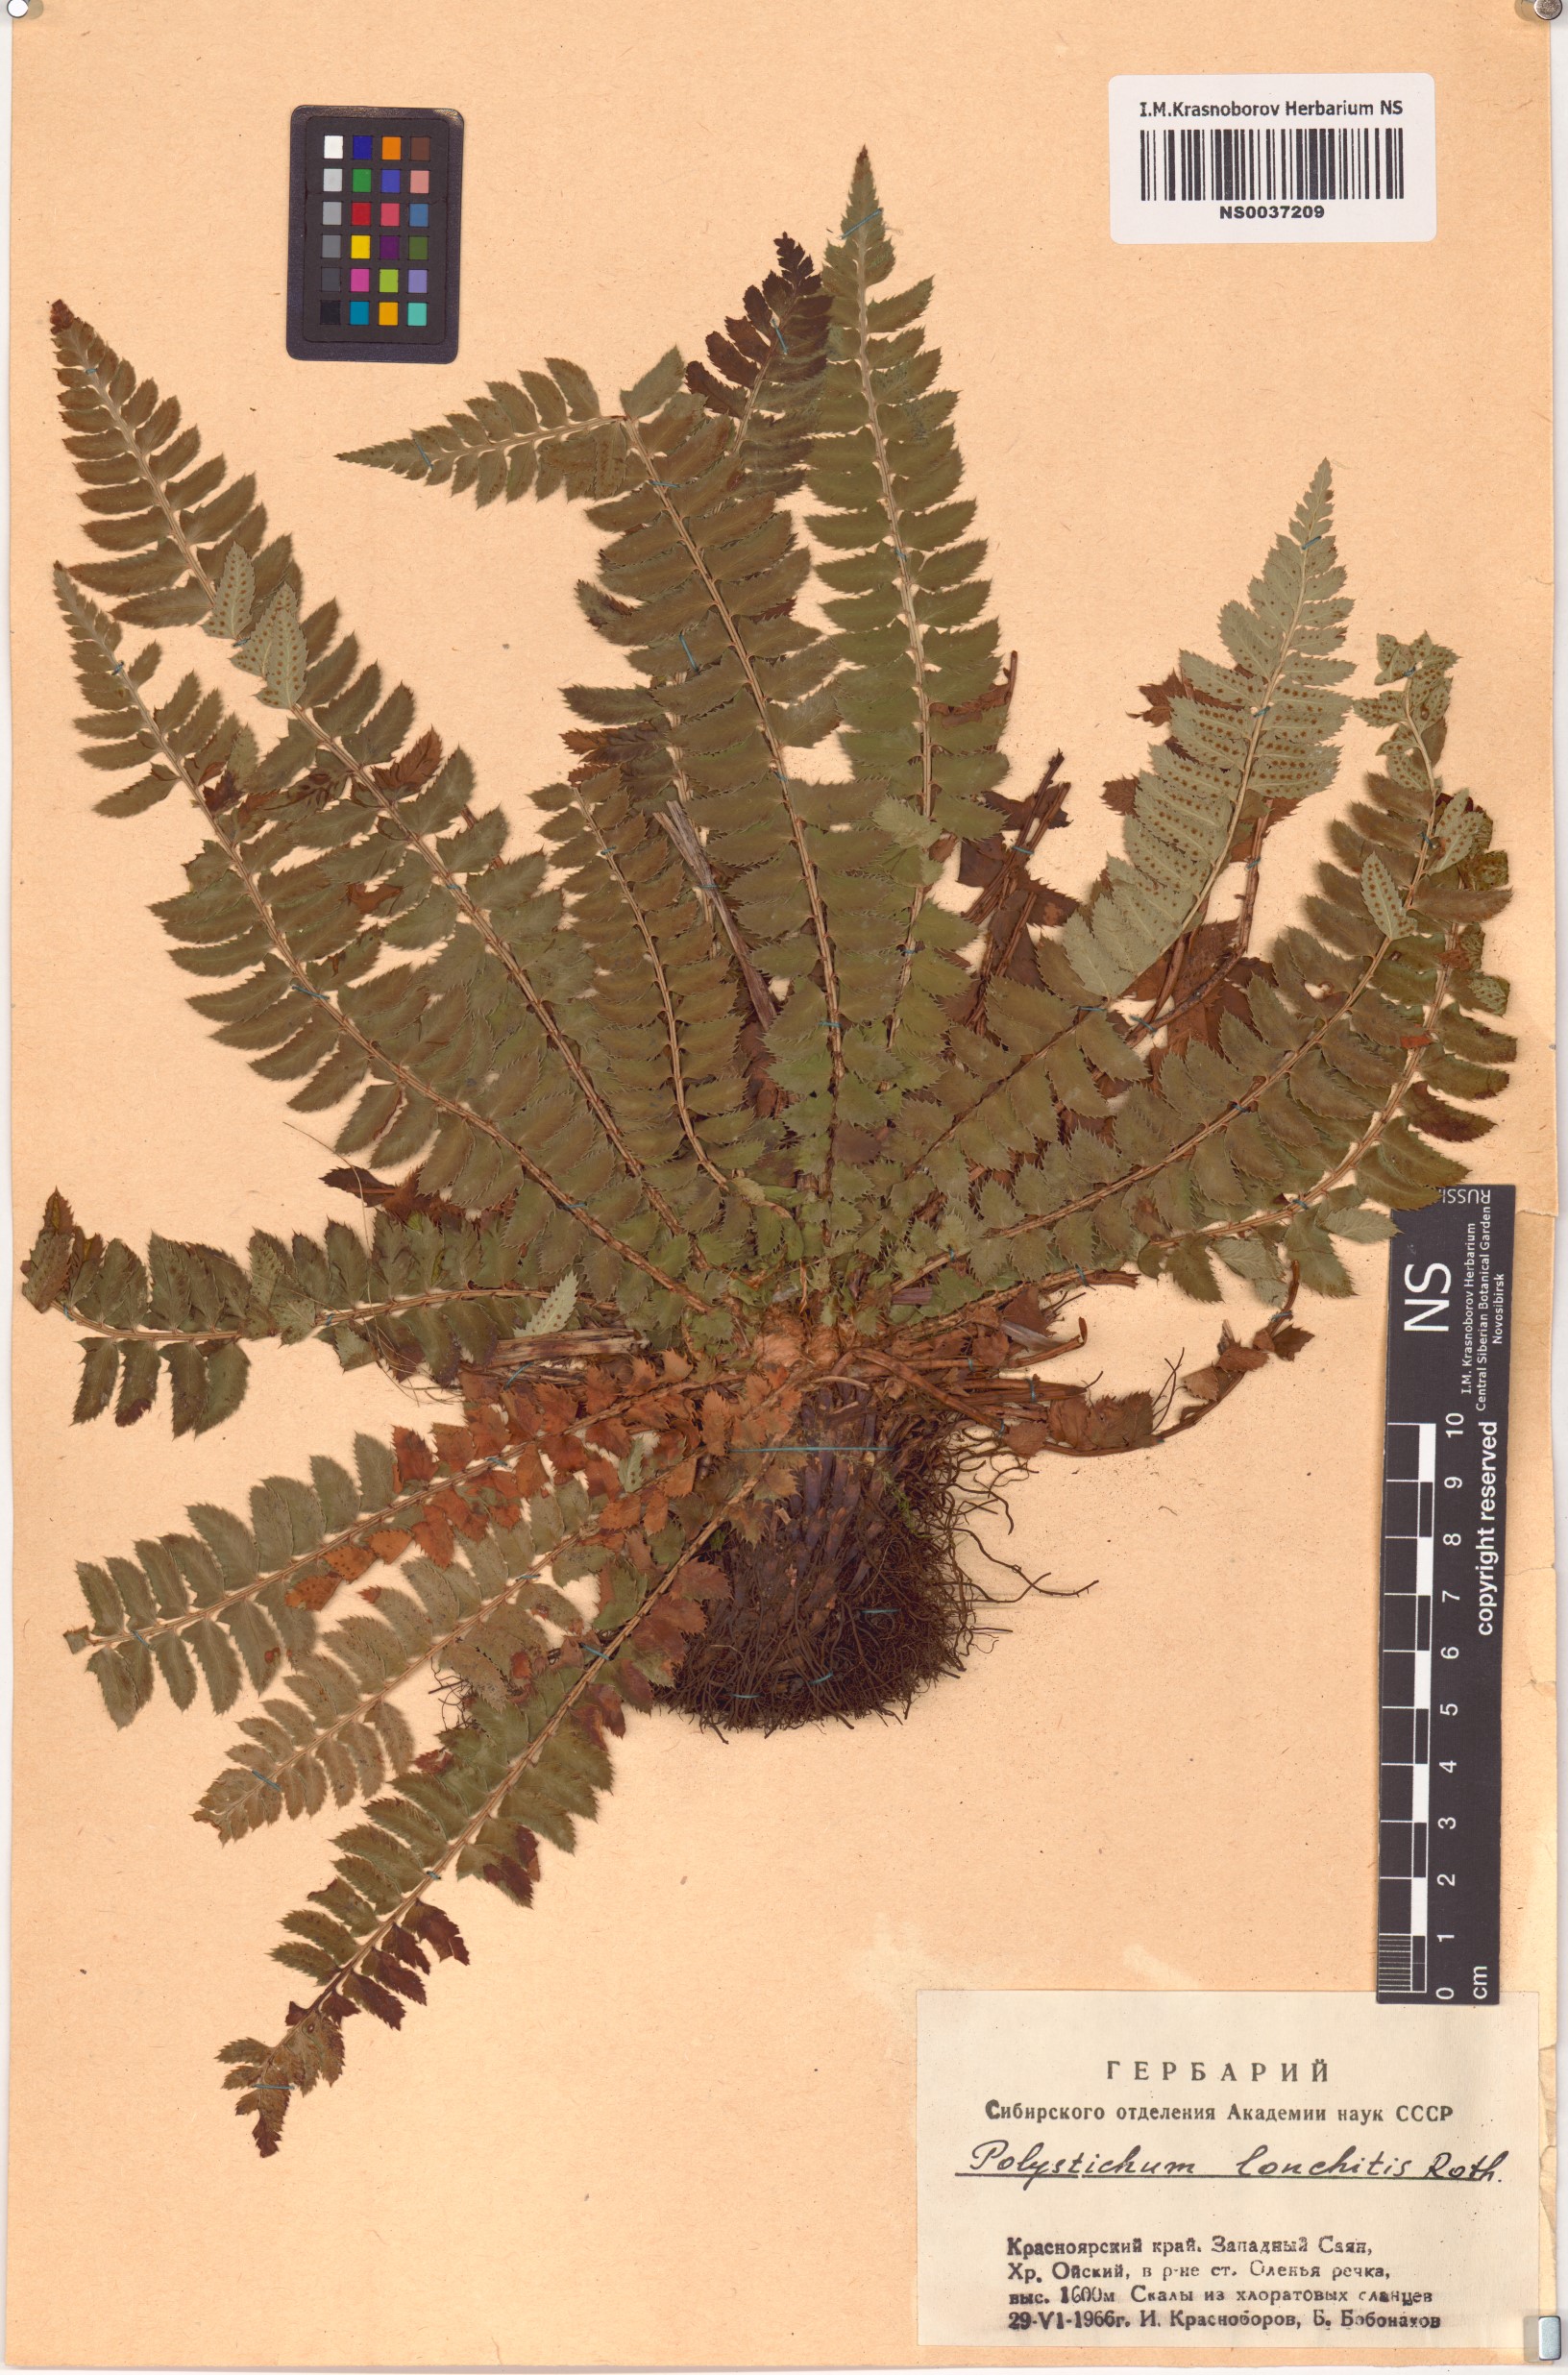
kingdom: Plantae
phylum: Tracheophyta
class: Polypodiopsida
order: Polypodiales
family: Dryopteridaceae
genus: Polystichum
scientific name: Polystichum lonchitis
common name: Holly fern
